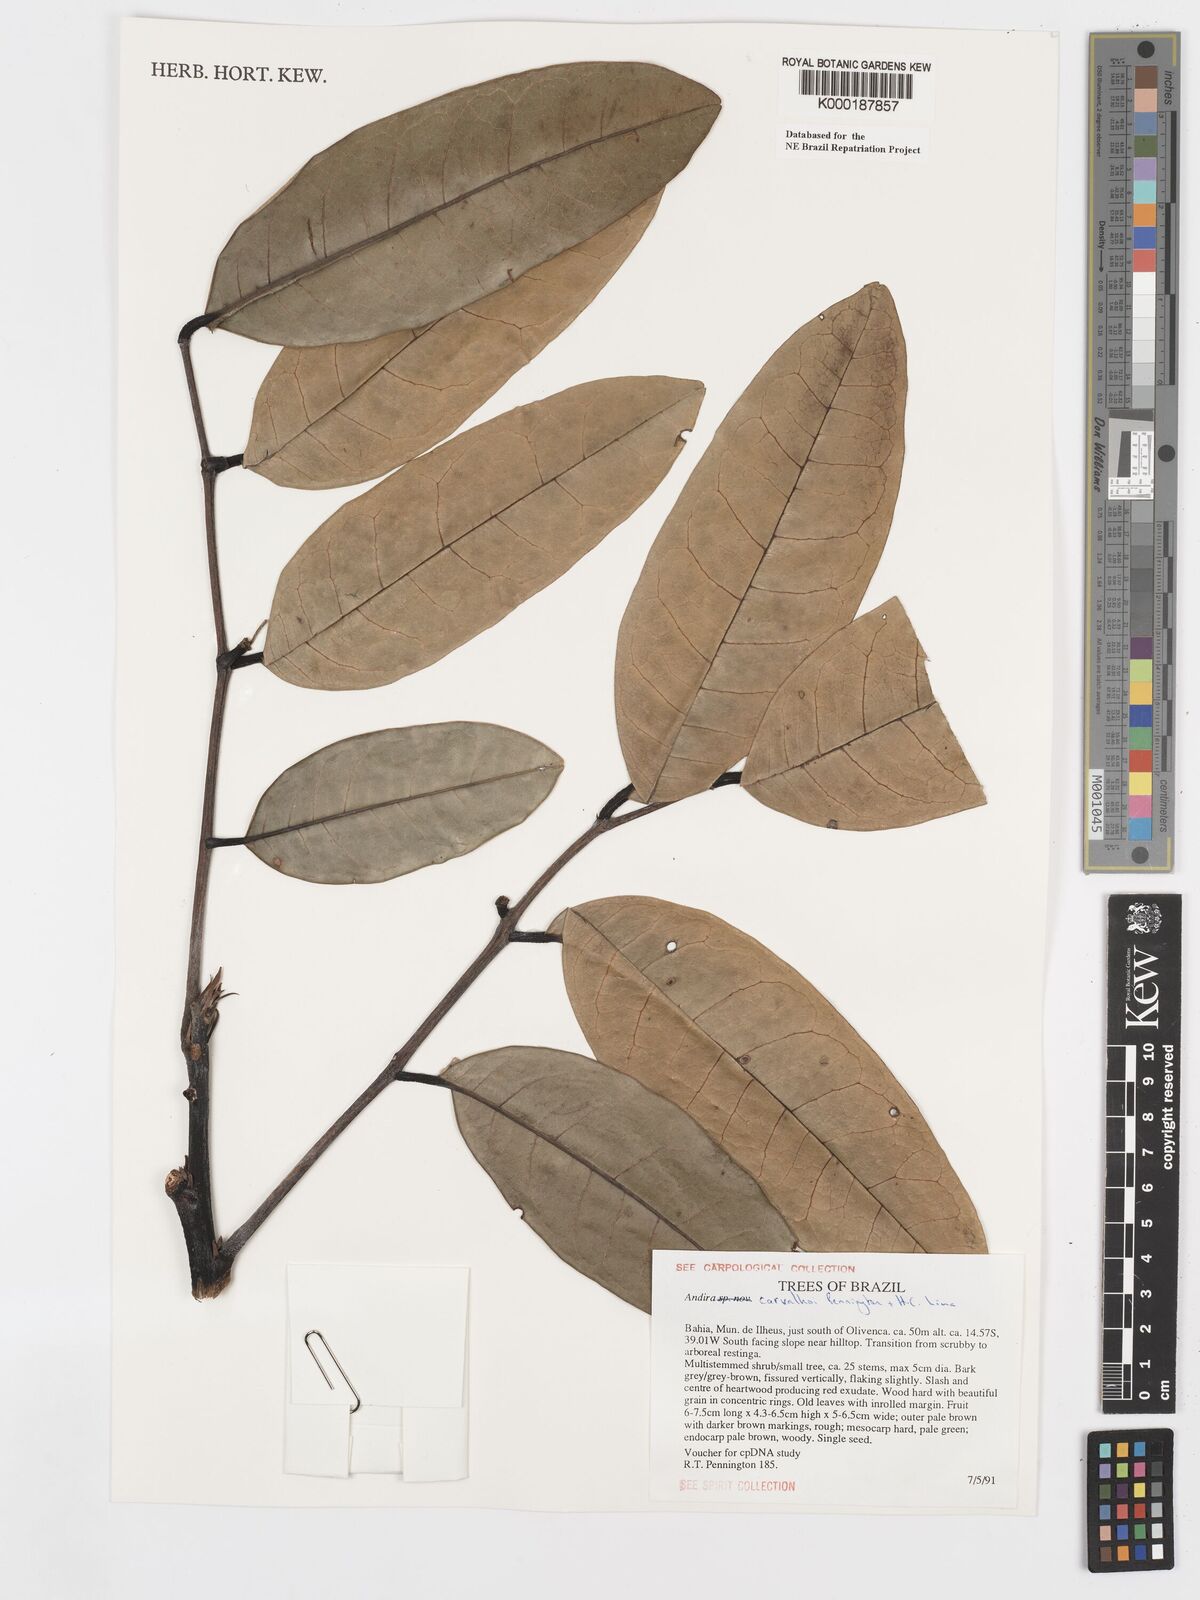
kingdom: Plantae
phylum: Tracheophyta
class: Magnoliopsida
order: Fabales
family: Fabaceae
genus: Andira
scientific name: Andira carvalhoi
